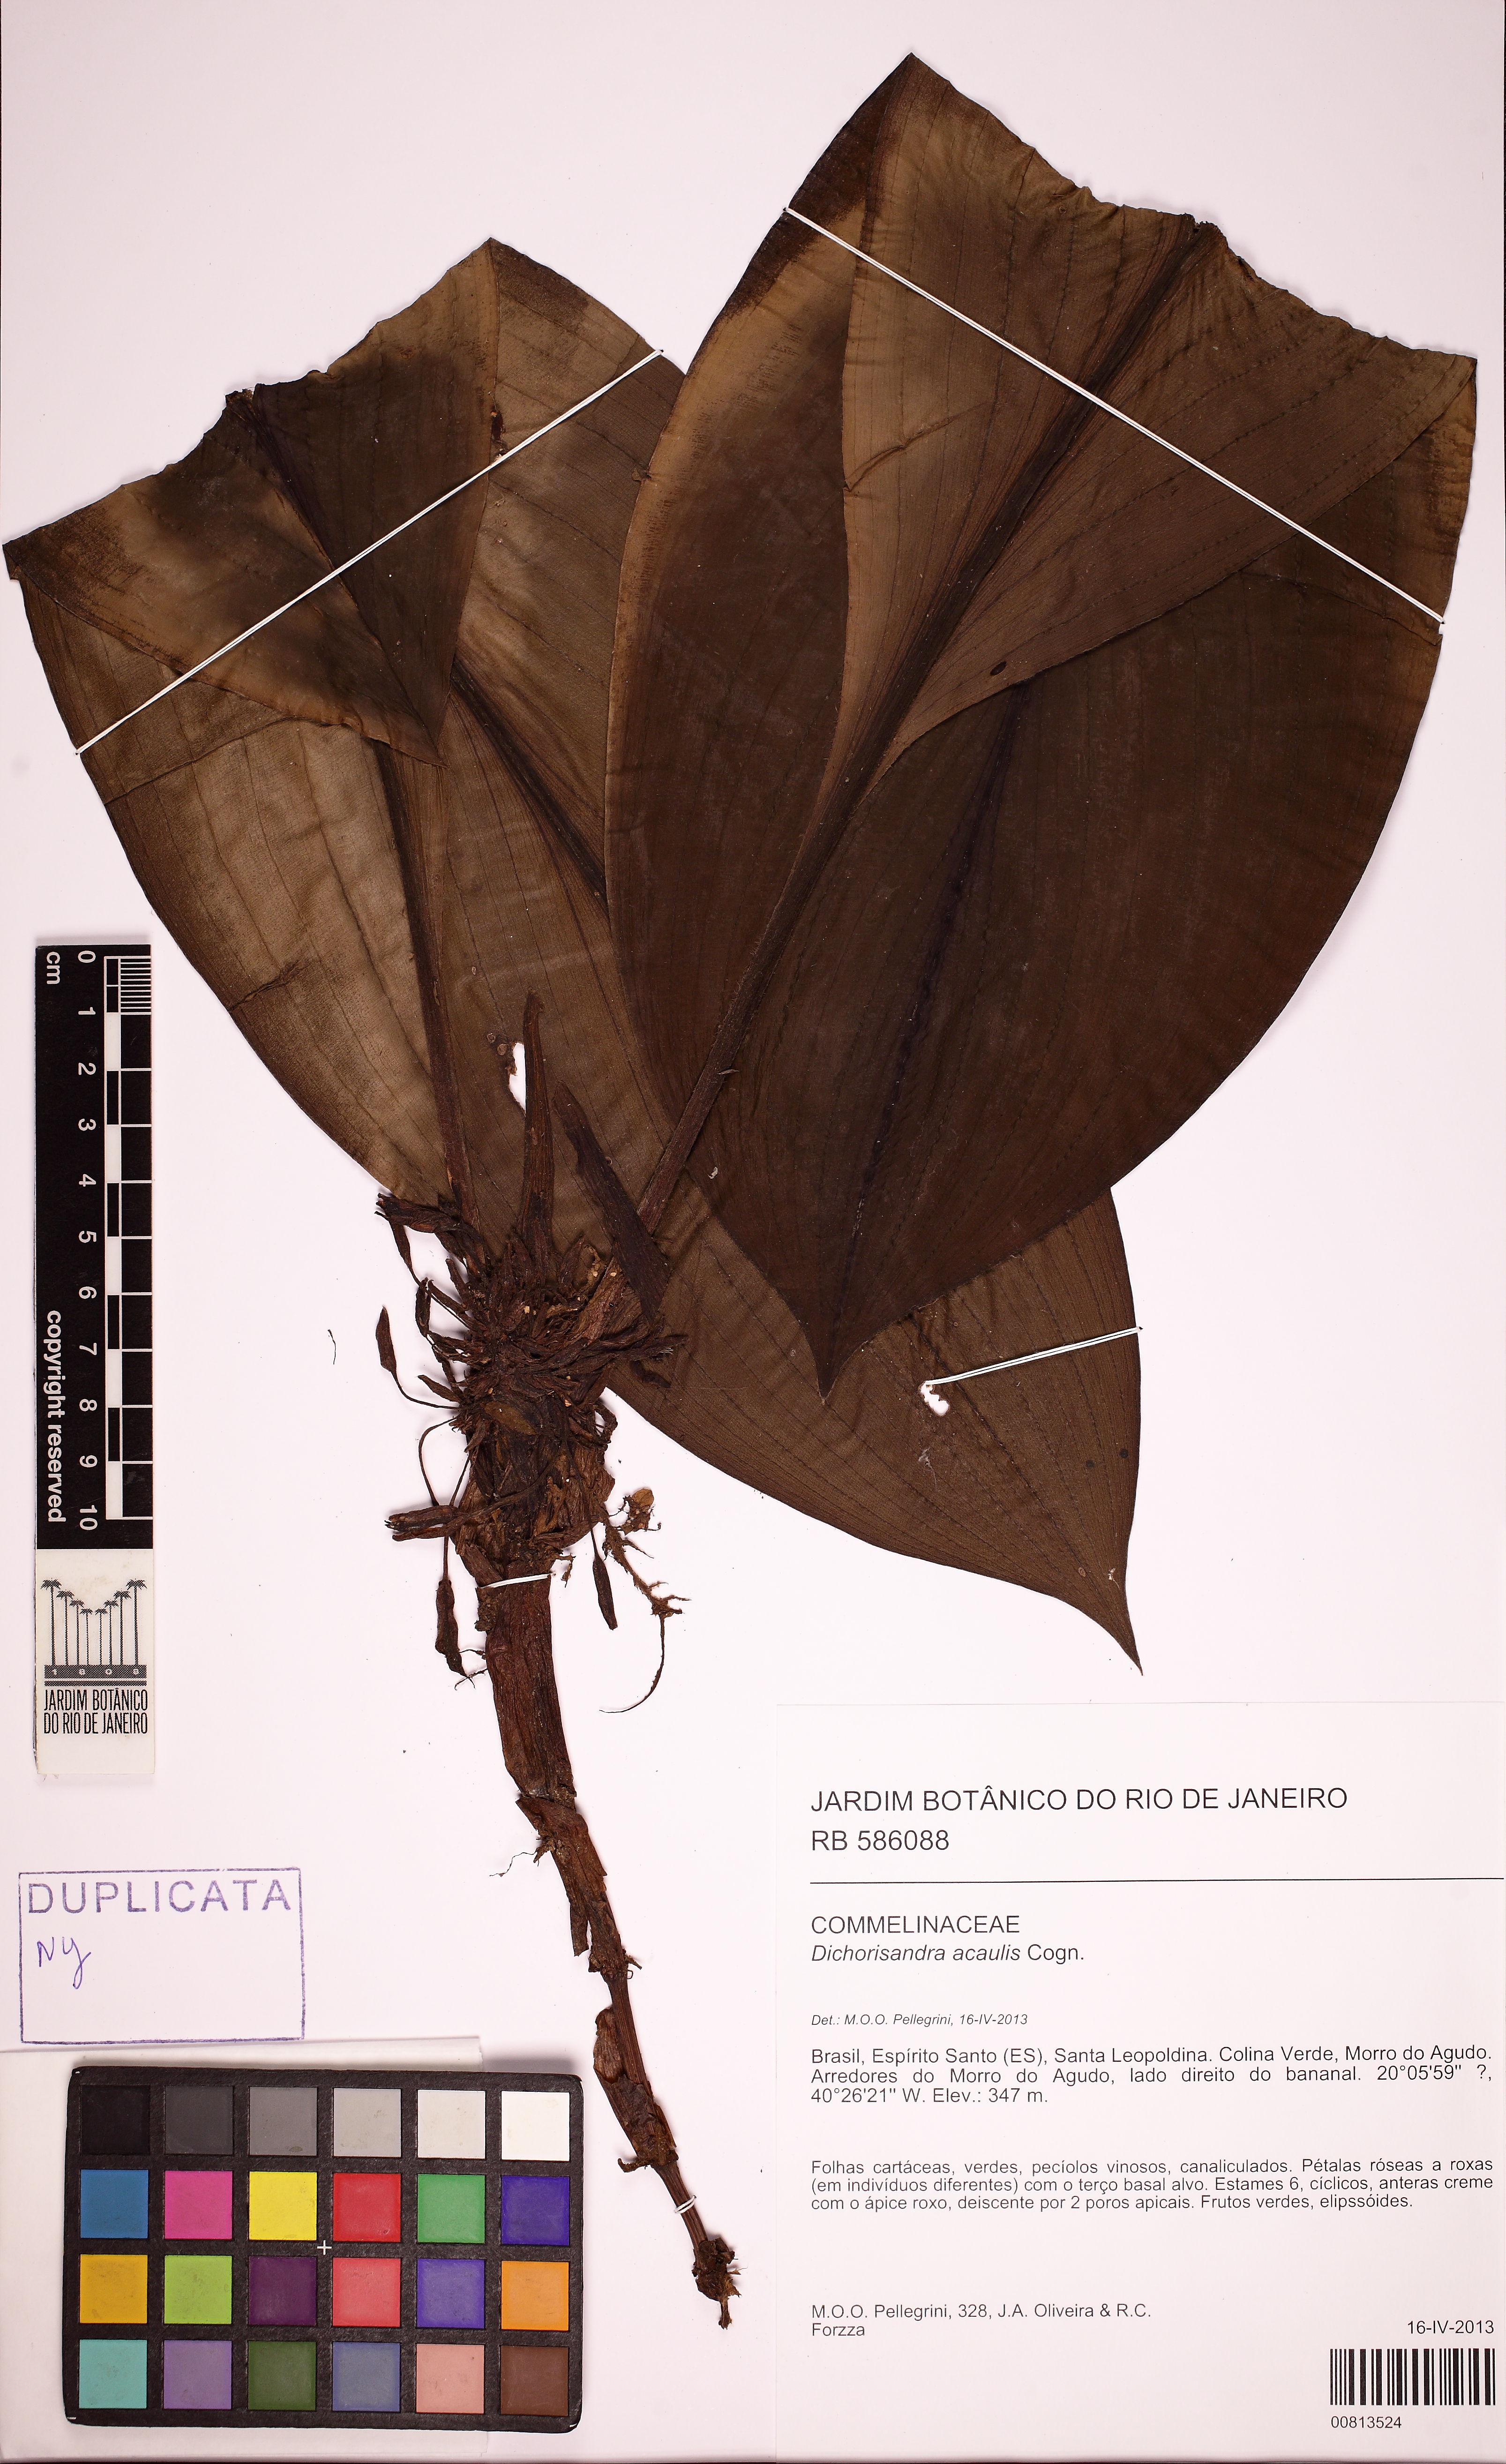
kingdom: Plantae
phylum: Tracheophyta
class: Liliopsida
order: Commelinales
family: Commelinaceae
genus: Dichorisandra
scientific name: Dichorisandra acaulis
